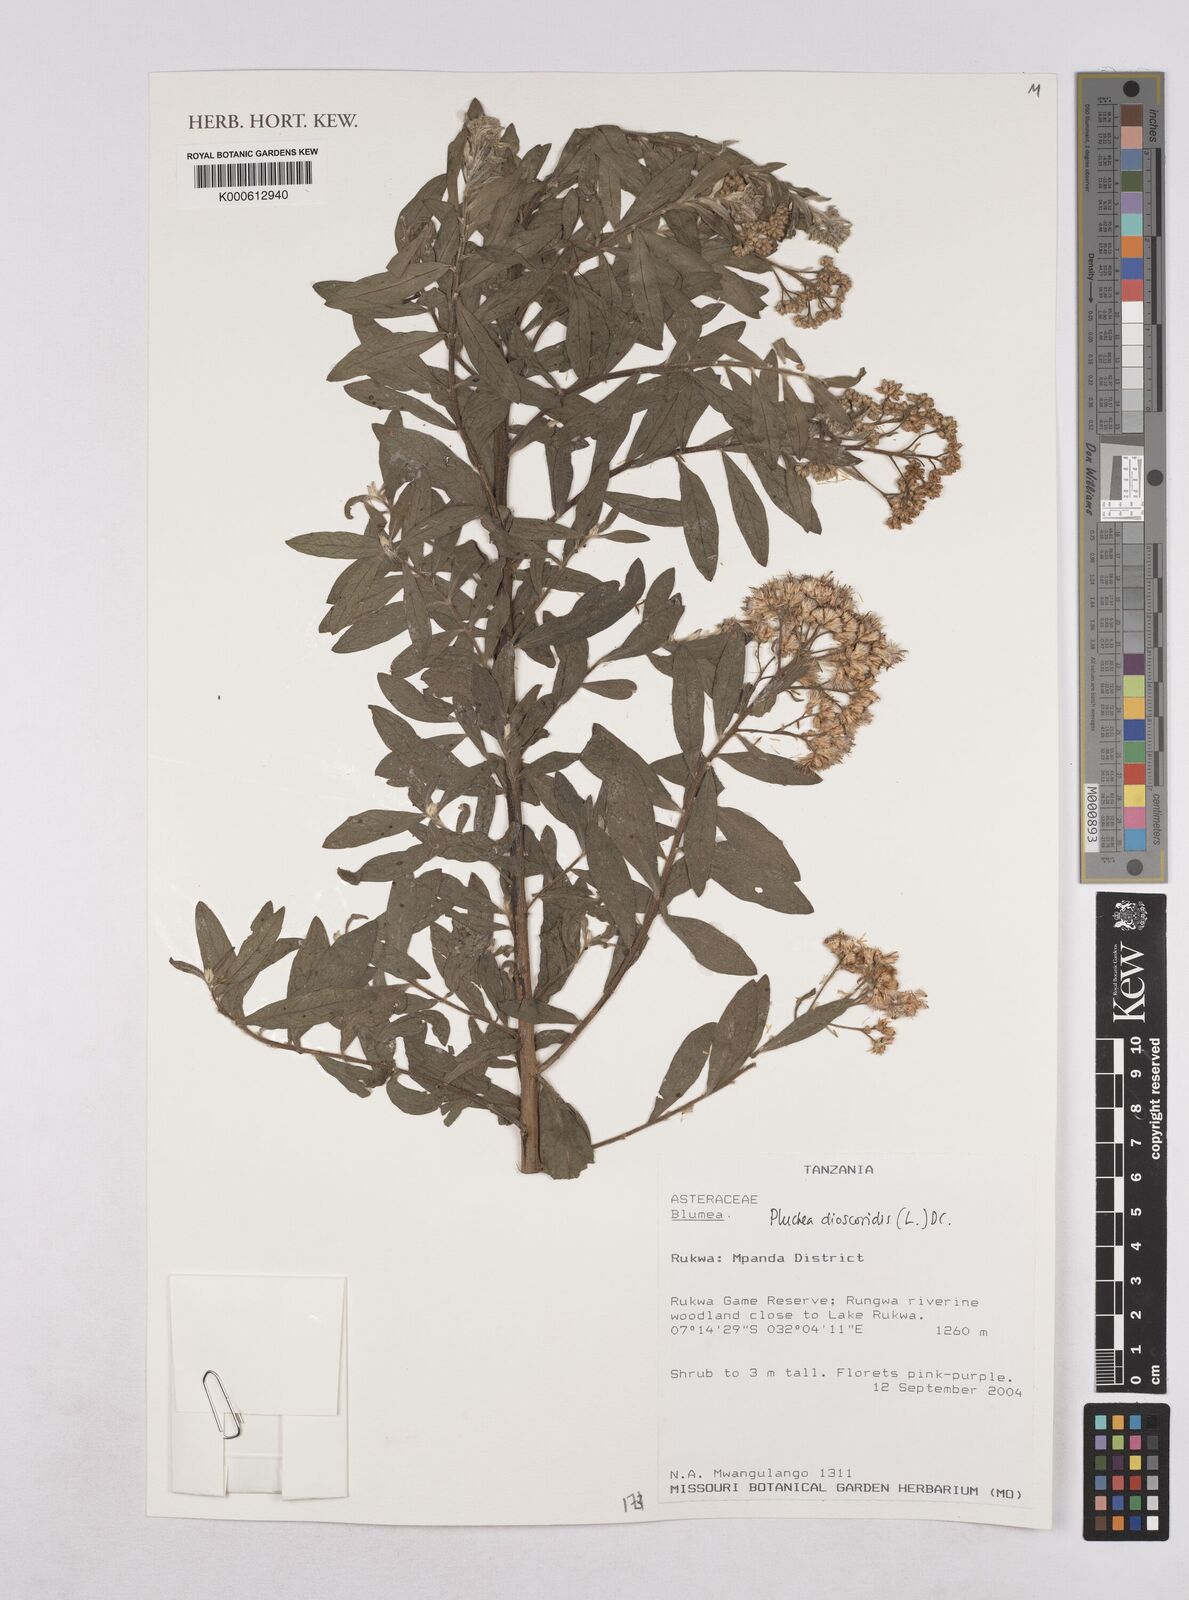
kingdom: Plantae
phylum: Tracheophyta
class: Magnoliopsida
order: Asterales
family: Asteraceae
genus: Pluchea
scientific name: Pluchea dioscoridis
